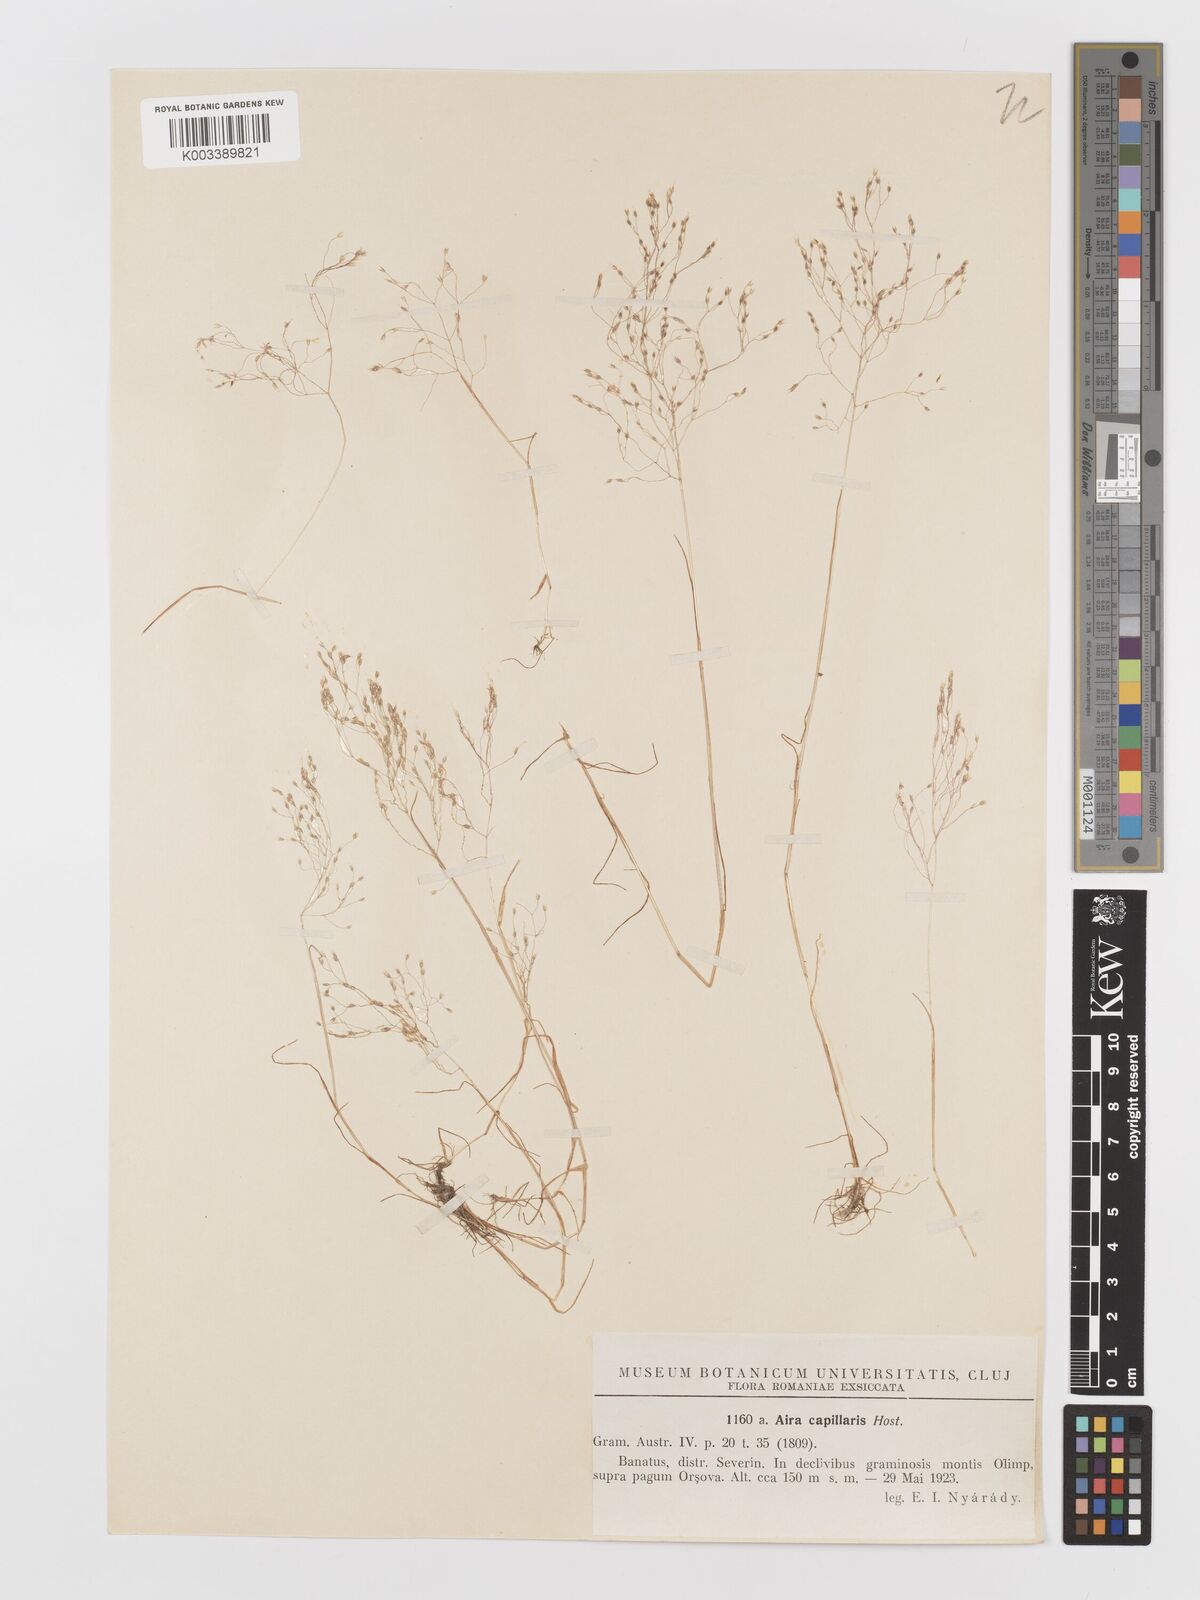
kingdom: Plantae
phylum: Tracheophyta
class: Liliopsida
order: Poales
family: Poaceae
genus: Aira
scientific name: Aira elegans
